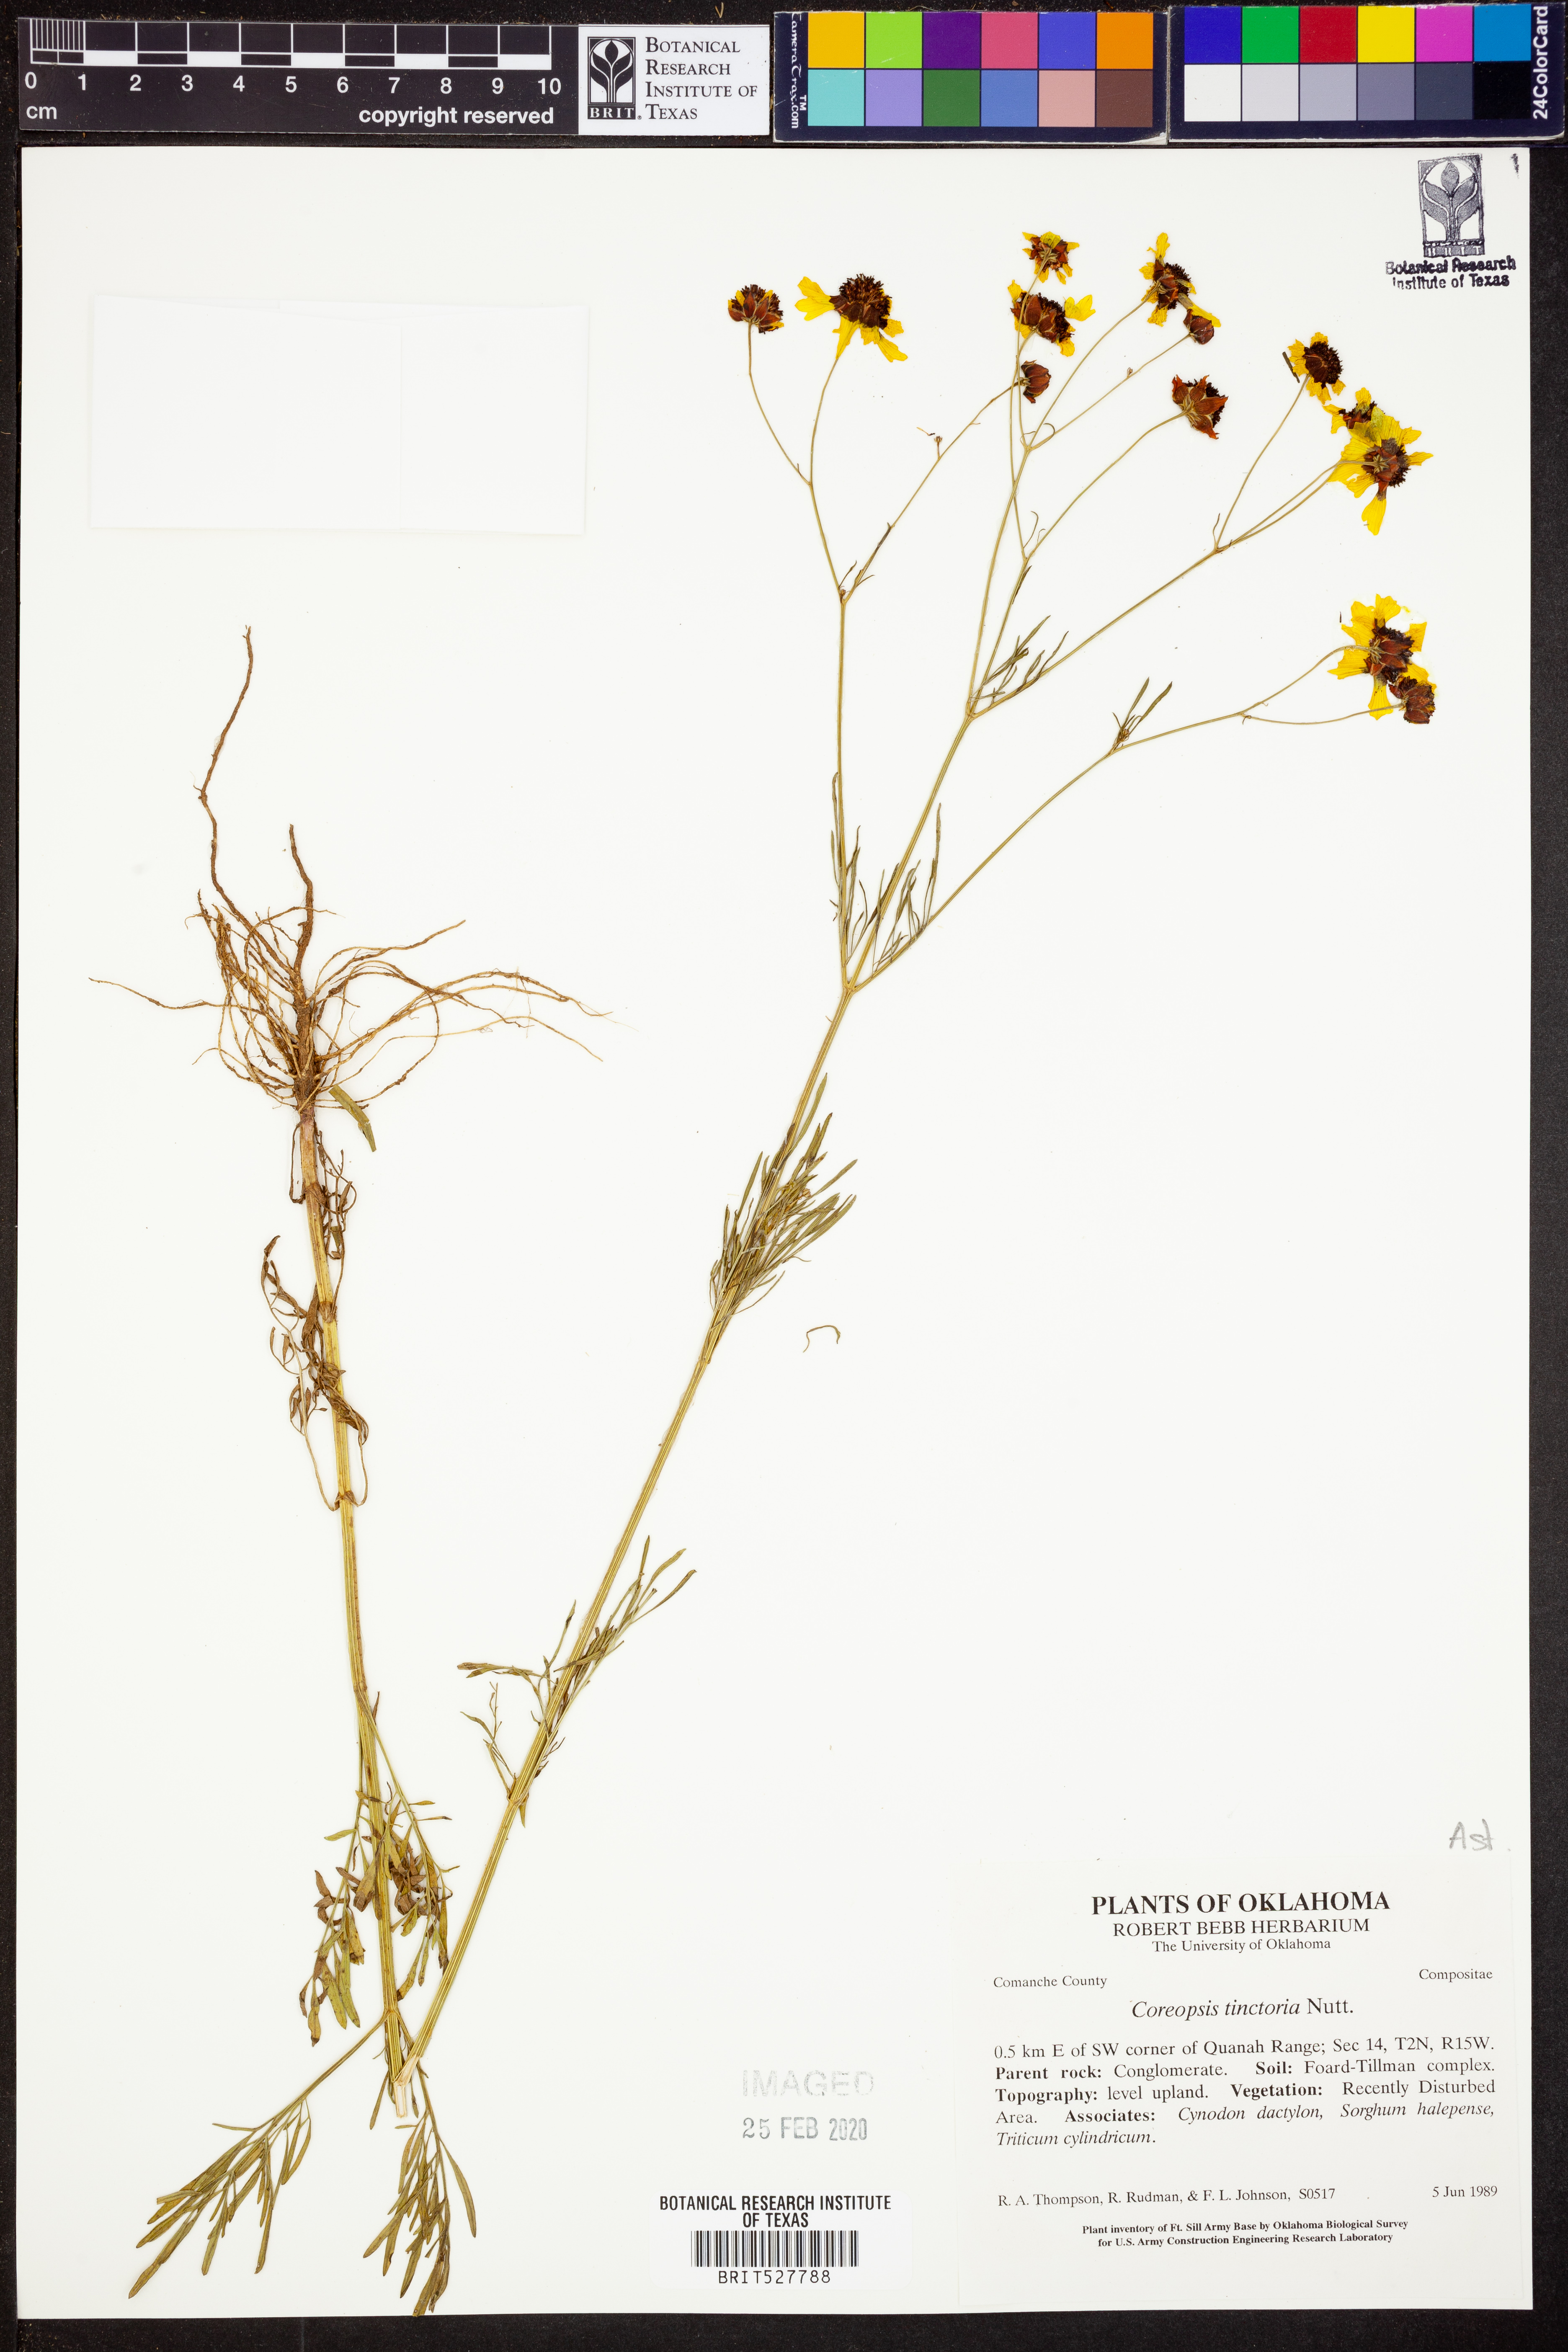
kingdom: Plantae
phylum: Tracheophyta
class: Magnoliopsida
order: Asterales
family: Asteraceae
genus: Coreopsis
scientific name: Coreopsis tinctoria
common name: Garden tickseed
